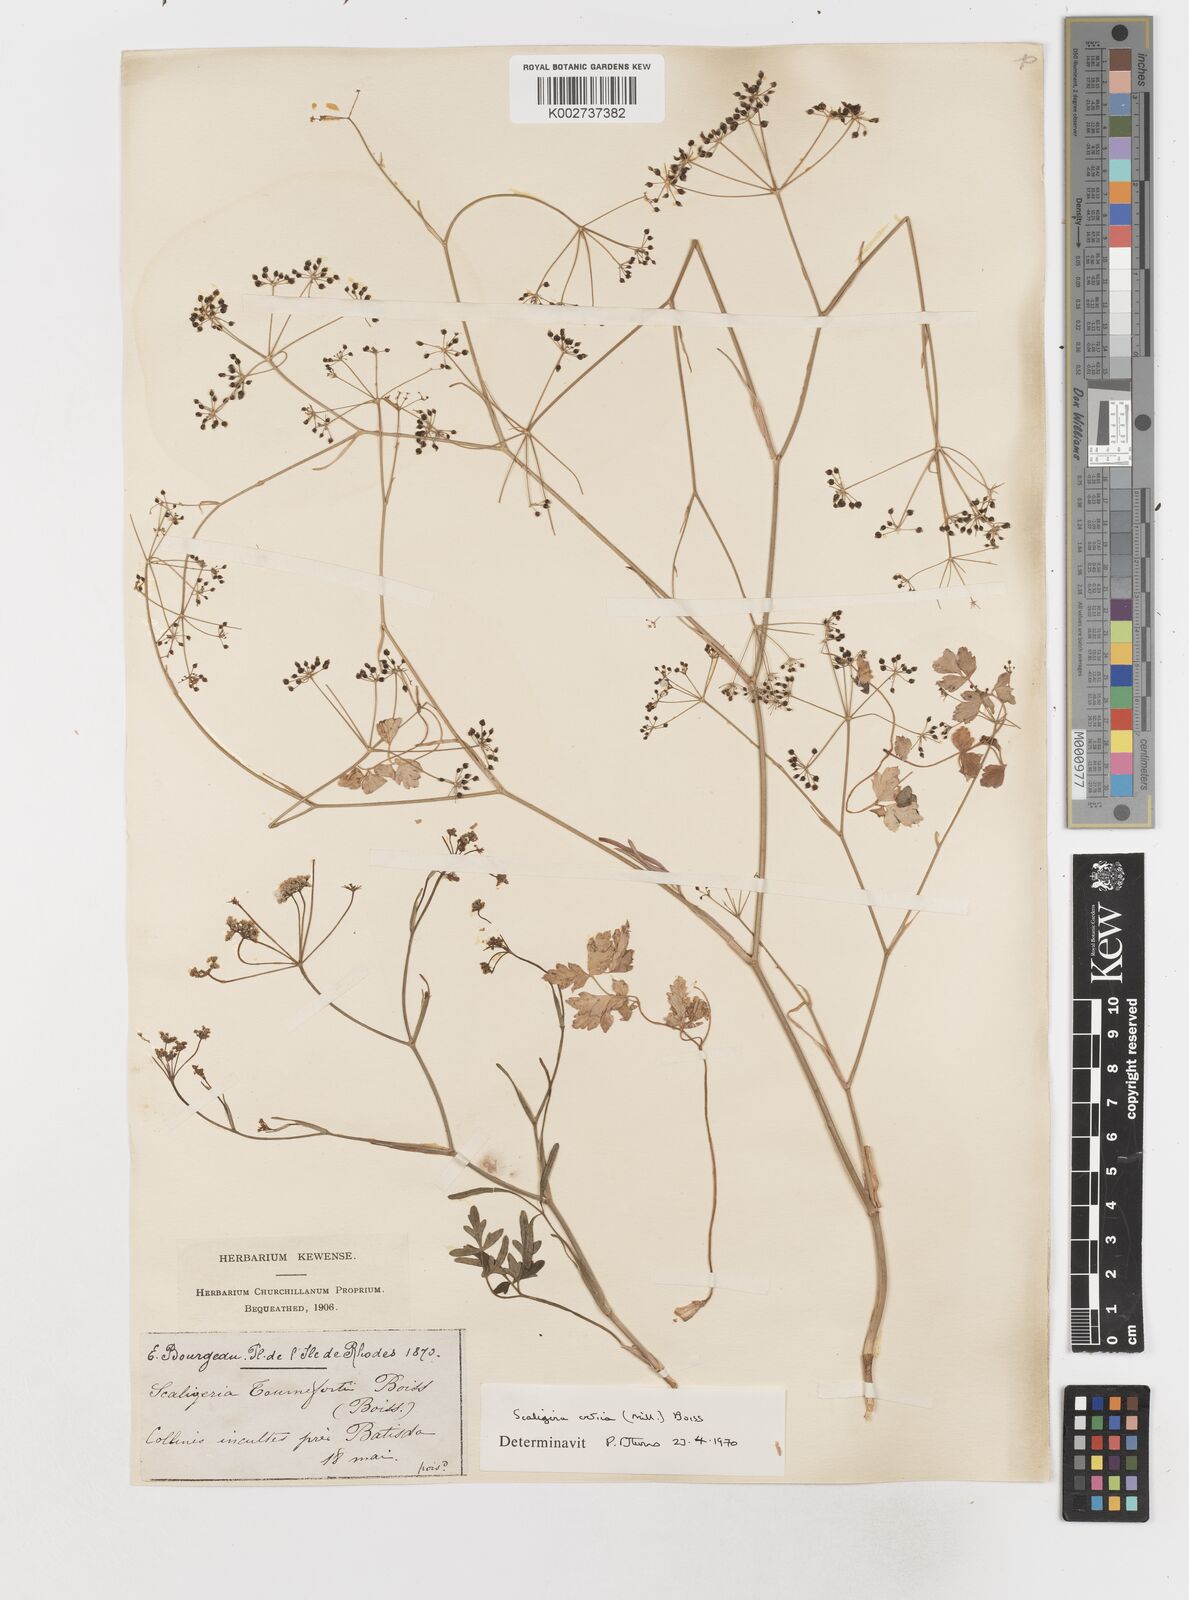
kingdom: Plantae
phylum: Tracheophyta
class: Magnoliopsida
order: Apiales
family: Apiaceae
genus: Scaligeria
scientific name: Scaligeria
